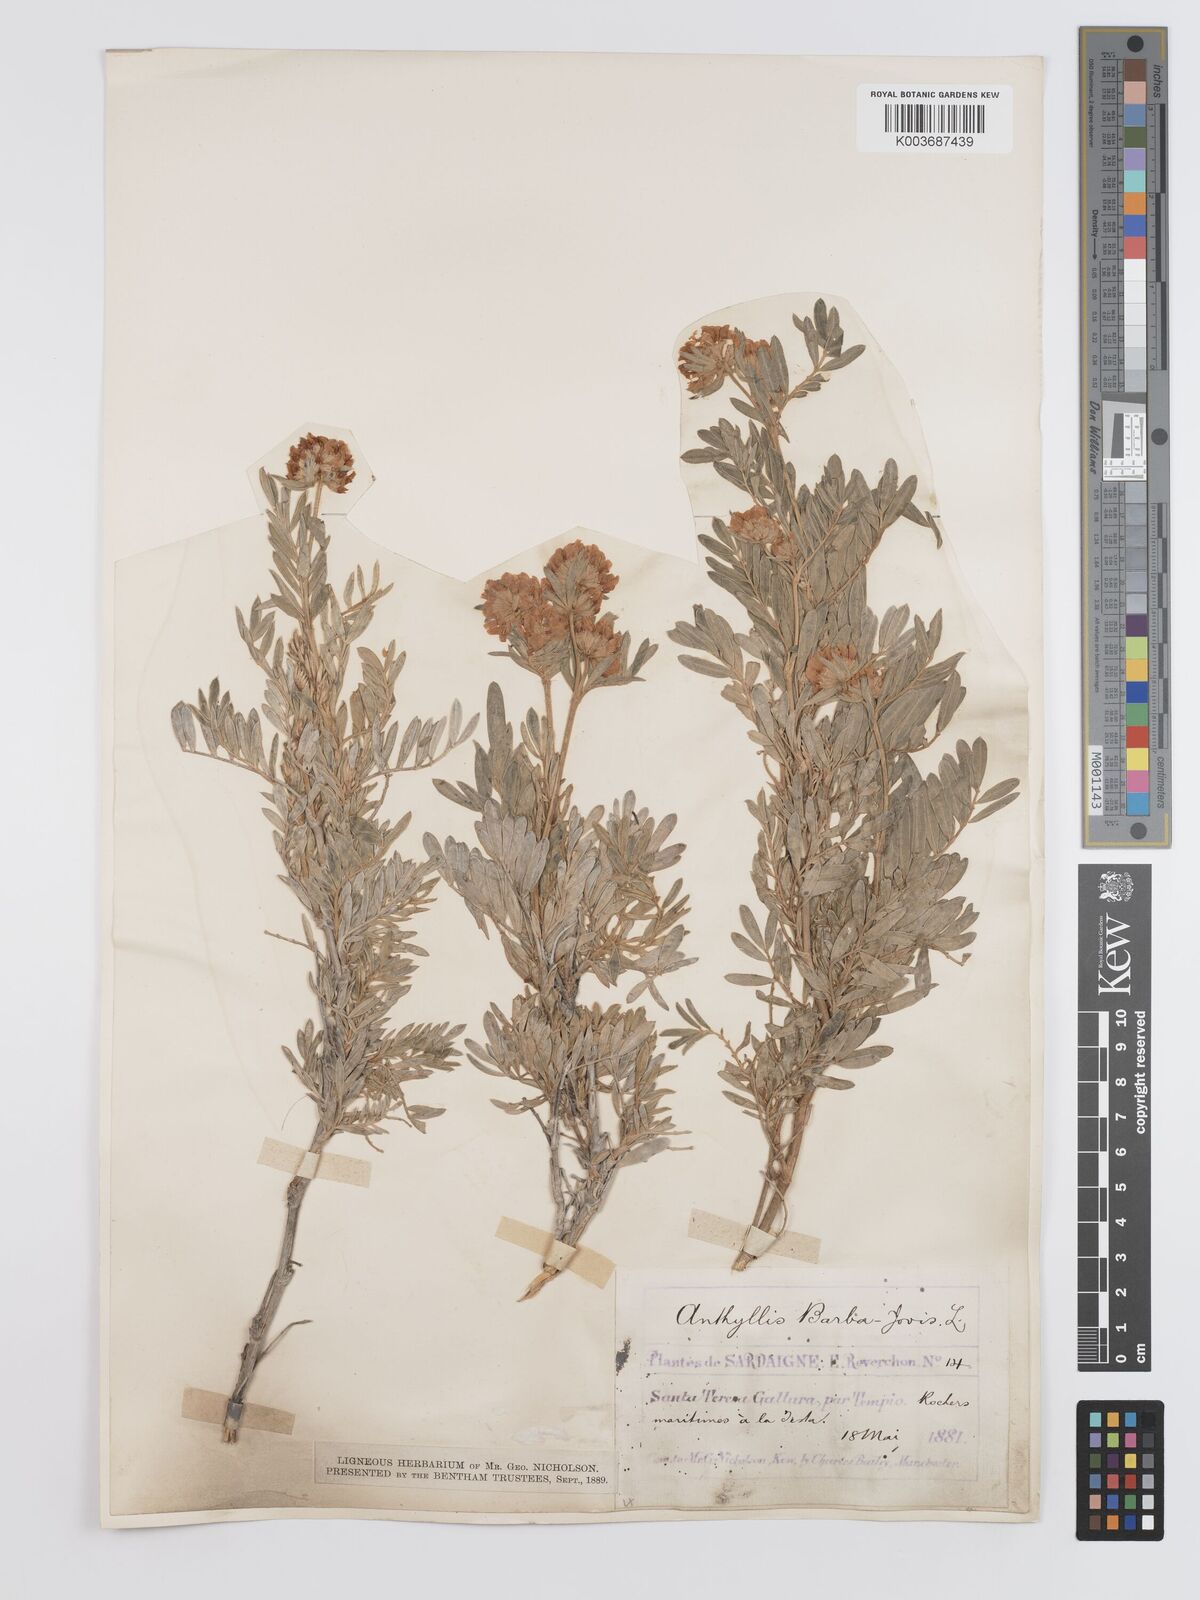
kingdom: Plantae
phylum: Tracheophyta
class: Magnoliopsida
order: Fabales
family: Fabaceae
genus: Anthyllis
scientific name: Anthyllis barba-jovis
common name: Jupiter's-beard
